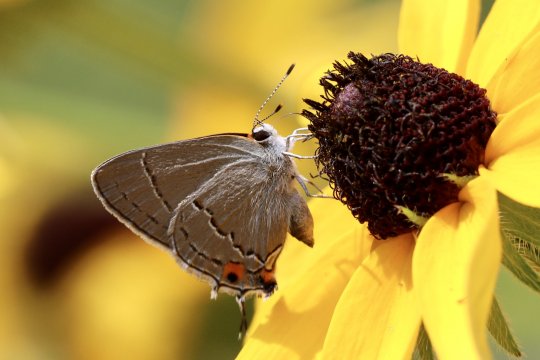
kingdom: Animalia
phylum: Arthropoda
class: Insecta
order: Lepidoptera
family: Lycaenidae
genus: Strymon
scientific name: Strymon melinus
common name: Gray Hairstreak
